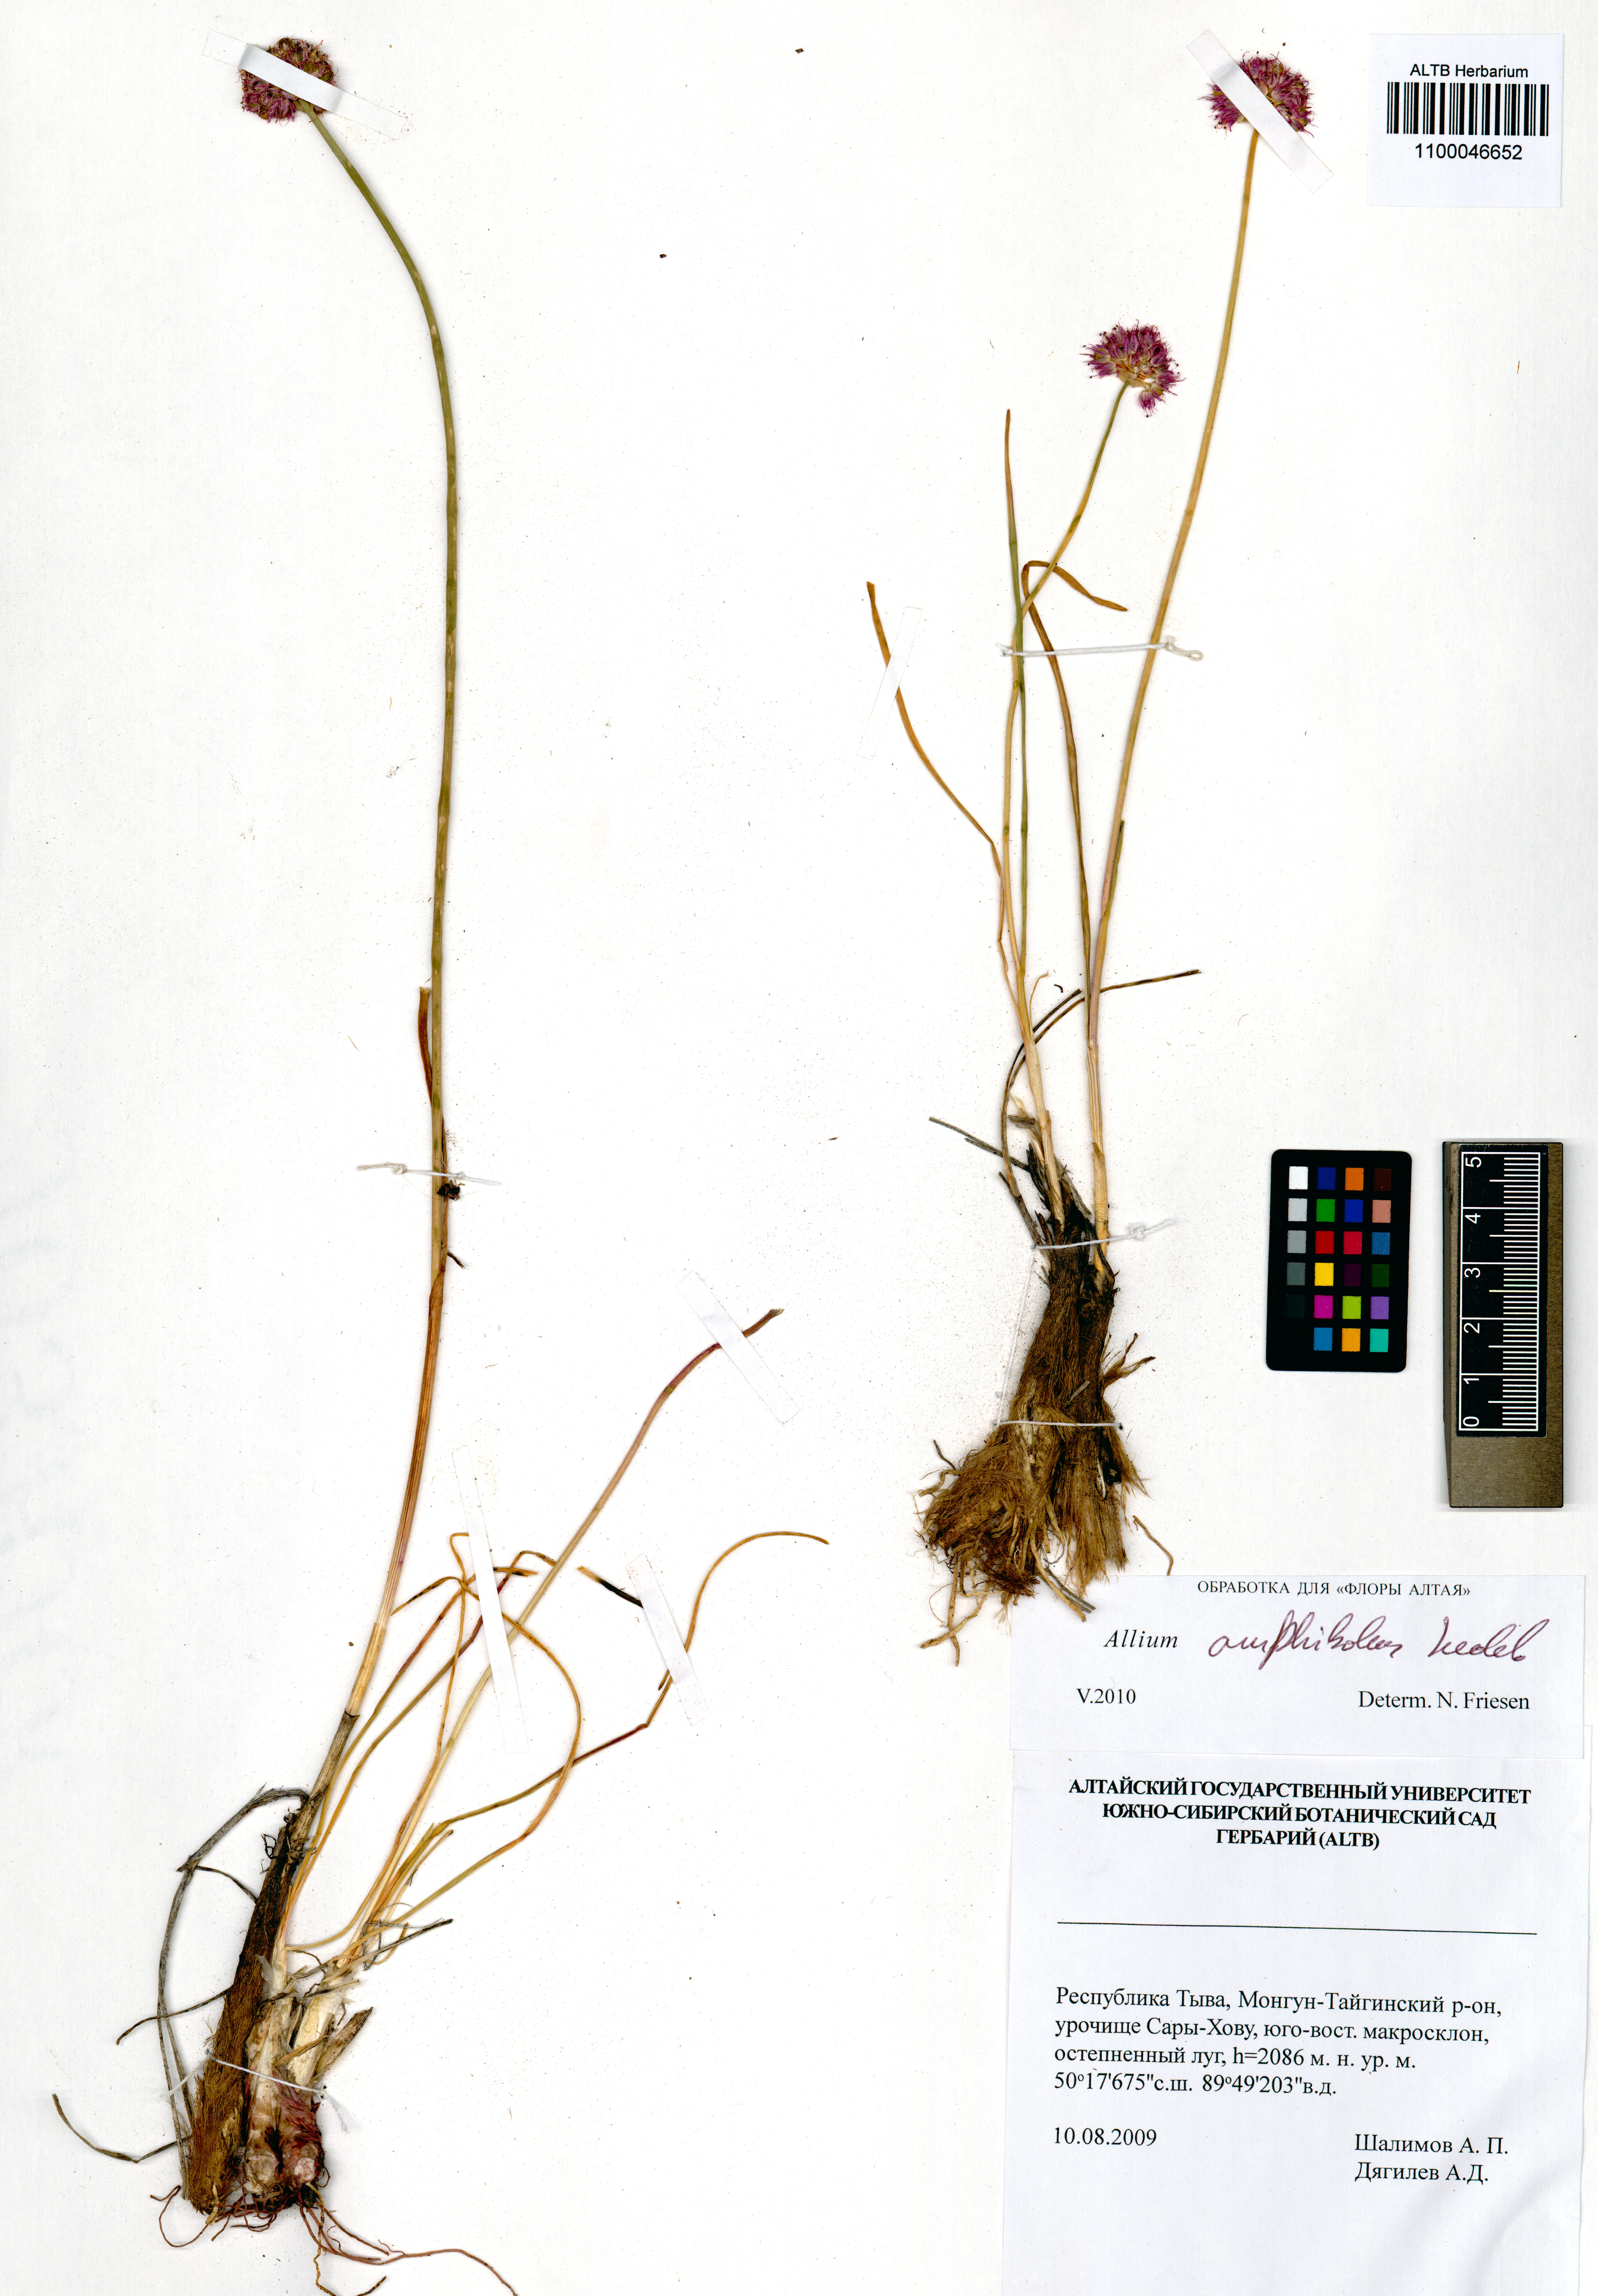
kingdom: Plantae
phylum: Tracheophyta
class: Liliopsida
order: Asparagales
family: Amaryllidaceae
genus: Allium
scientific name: Allium amphibolum
